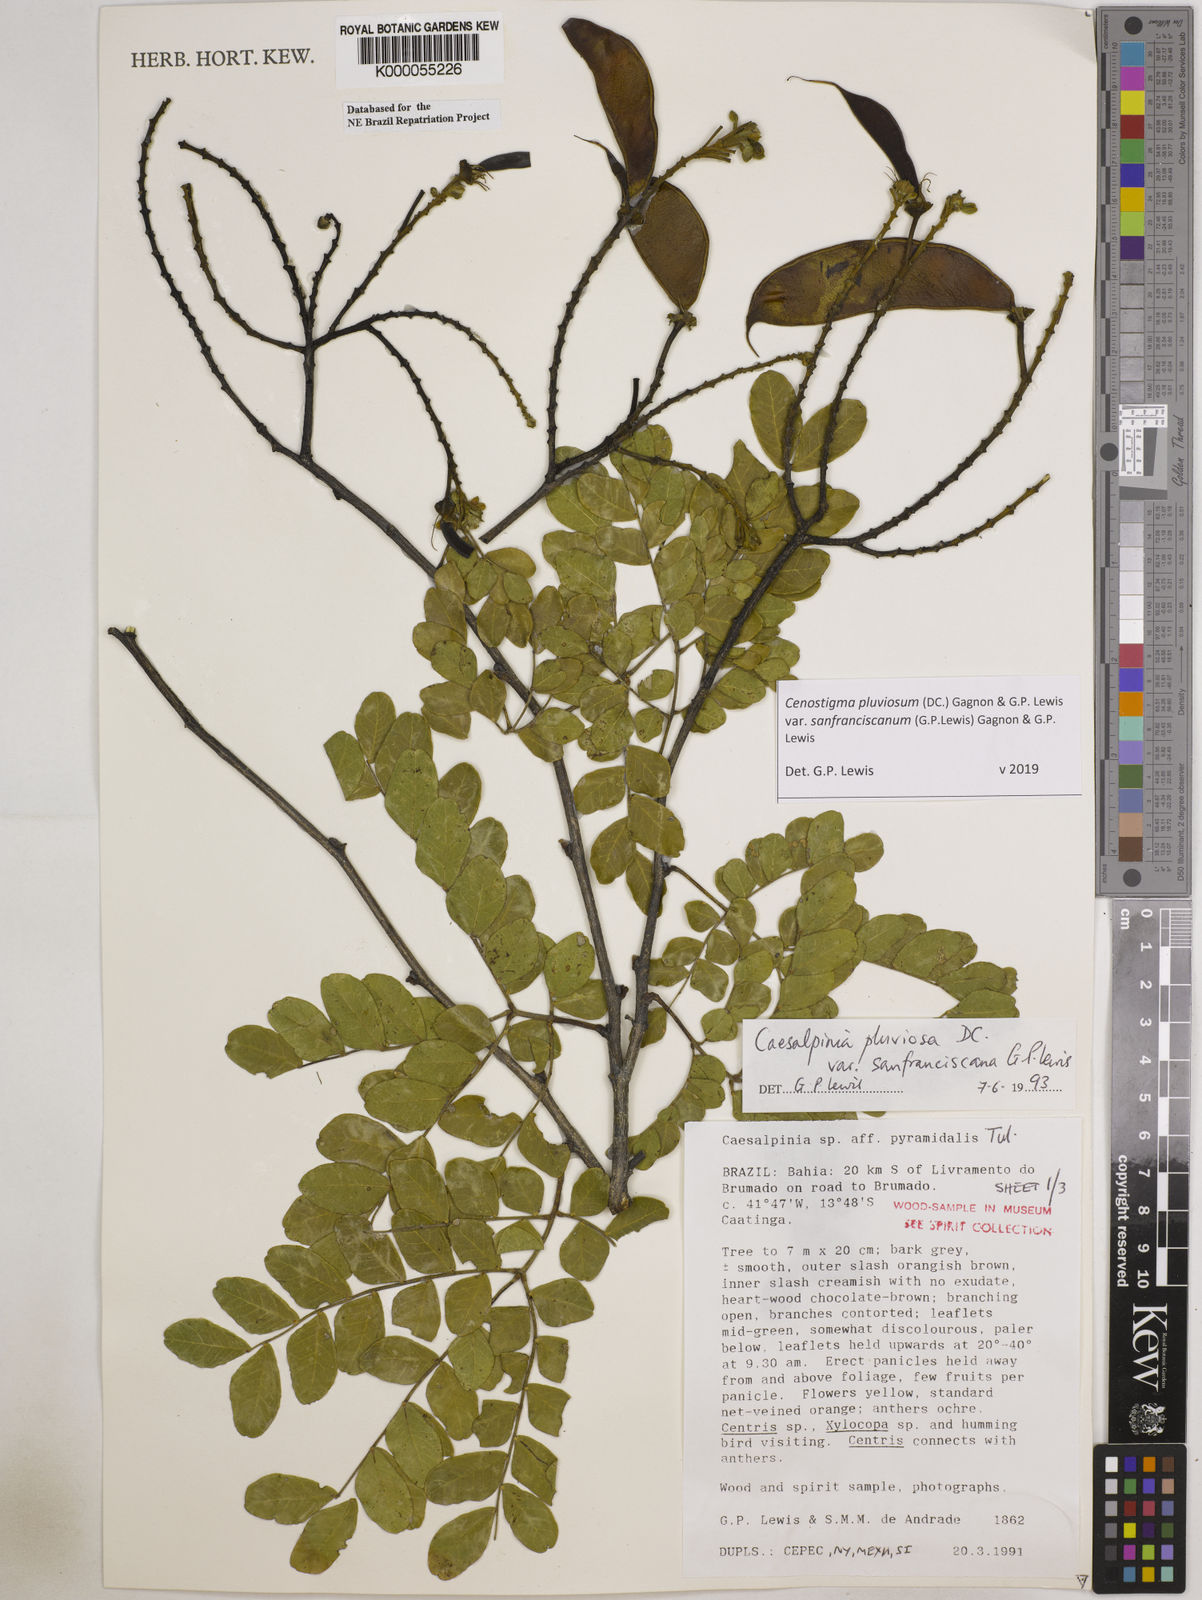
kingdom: Plantae
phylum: Tracheophyta
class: Magnoliopsida
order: Fabales
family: Fabaceae
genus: Cenostigma
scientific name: Cenostigma pluviosum
